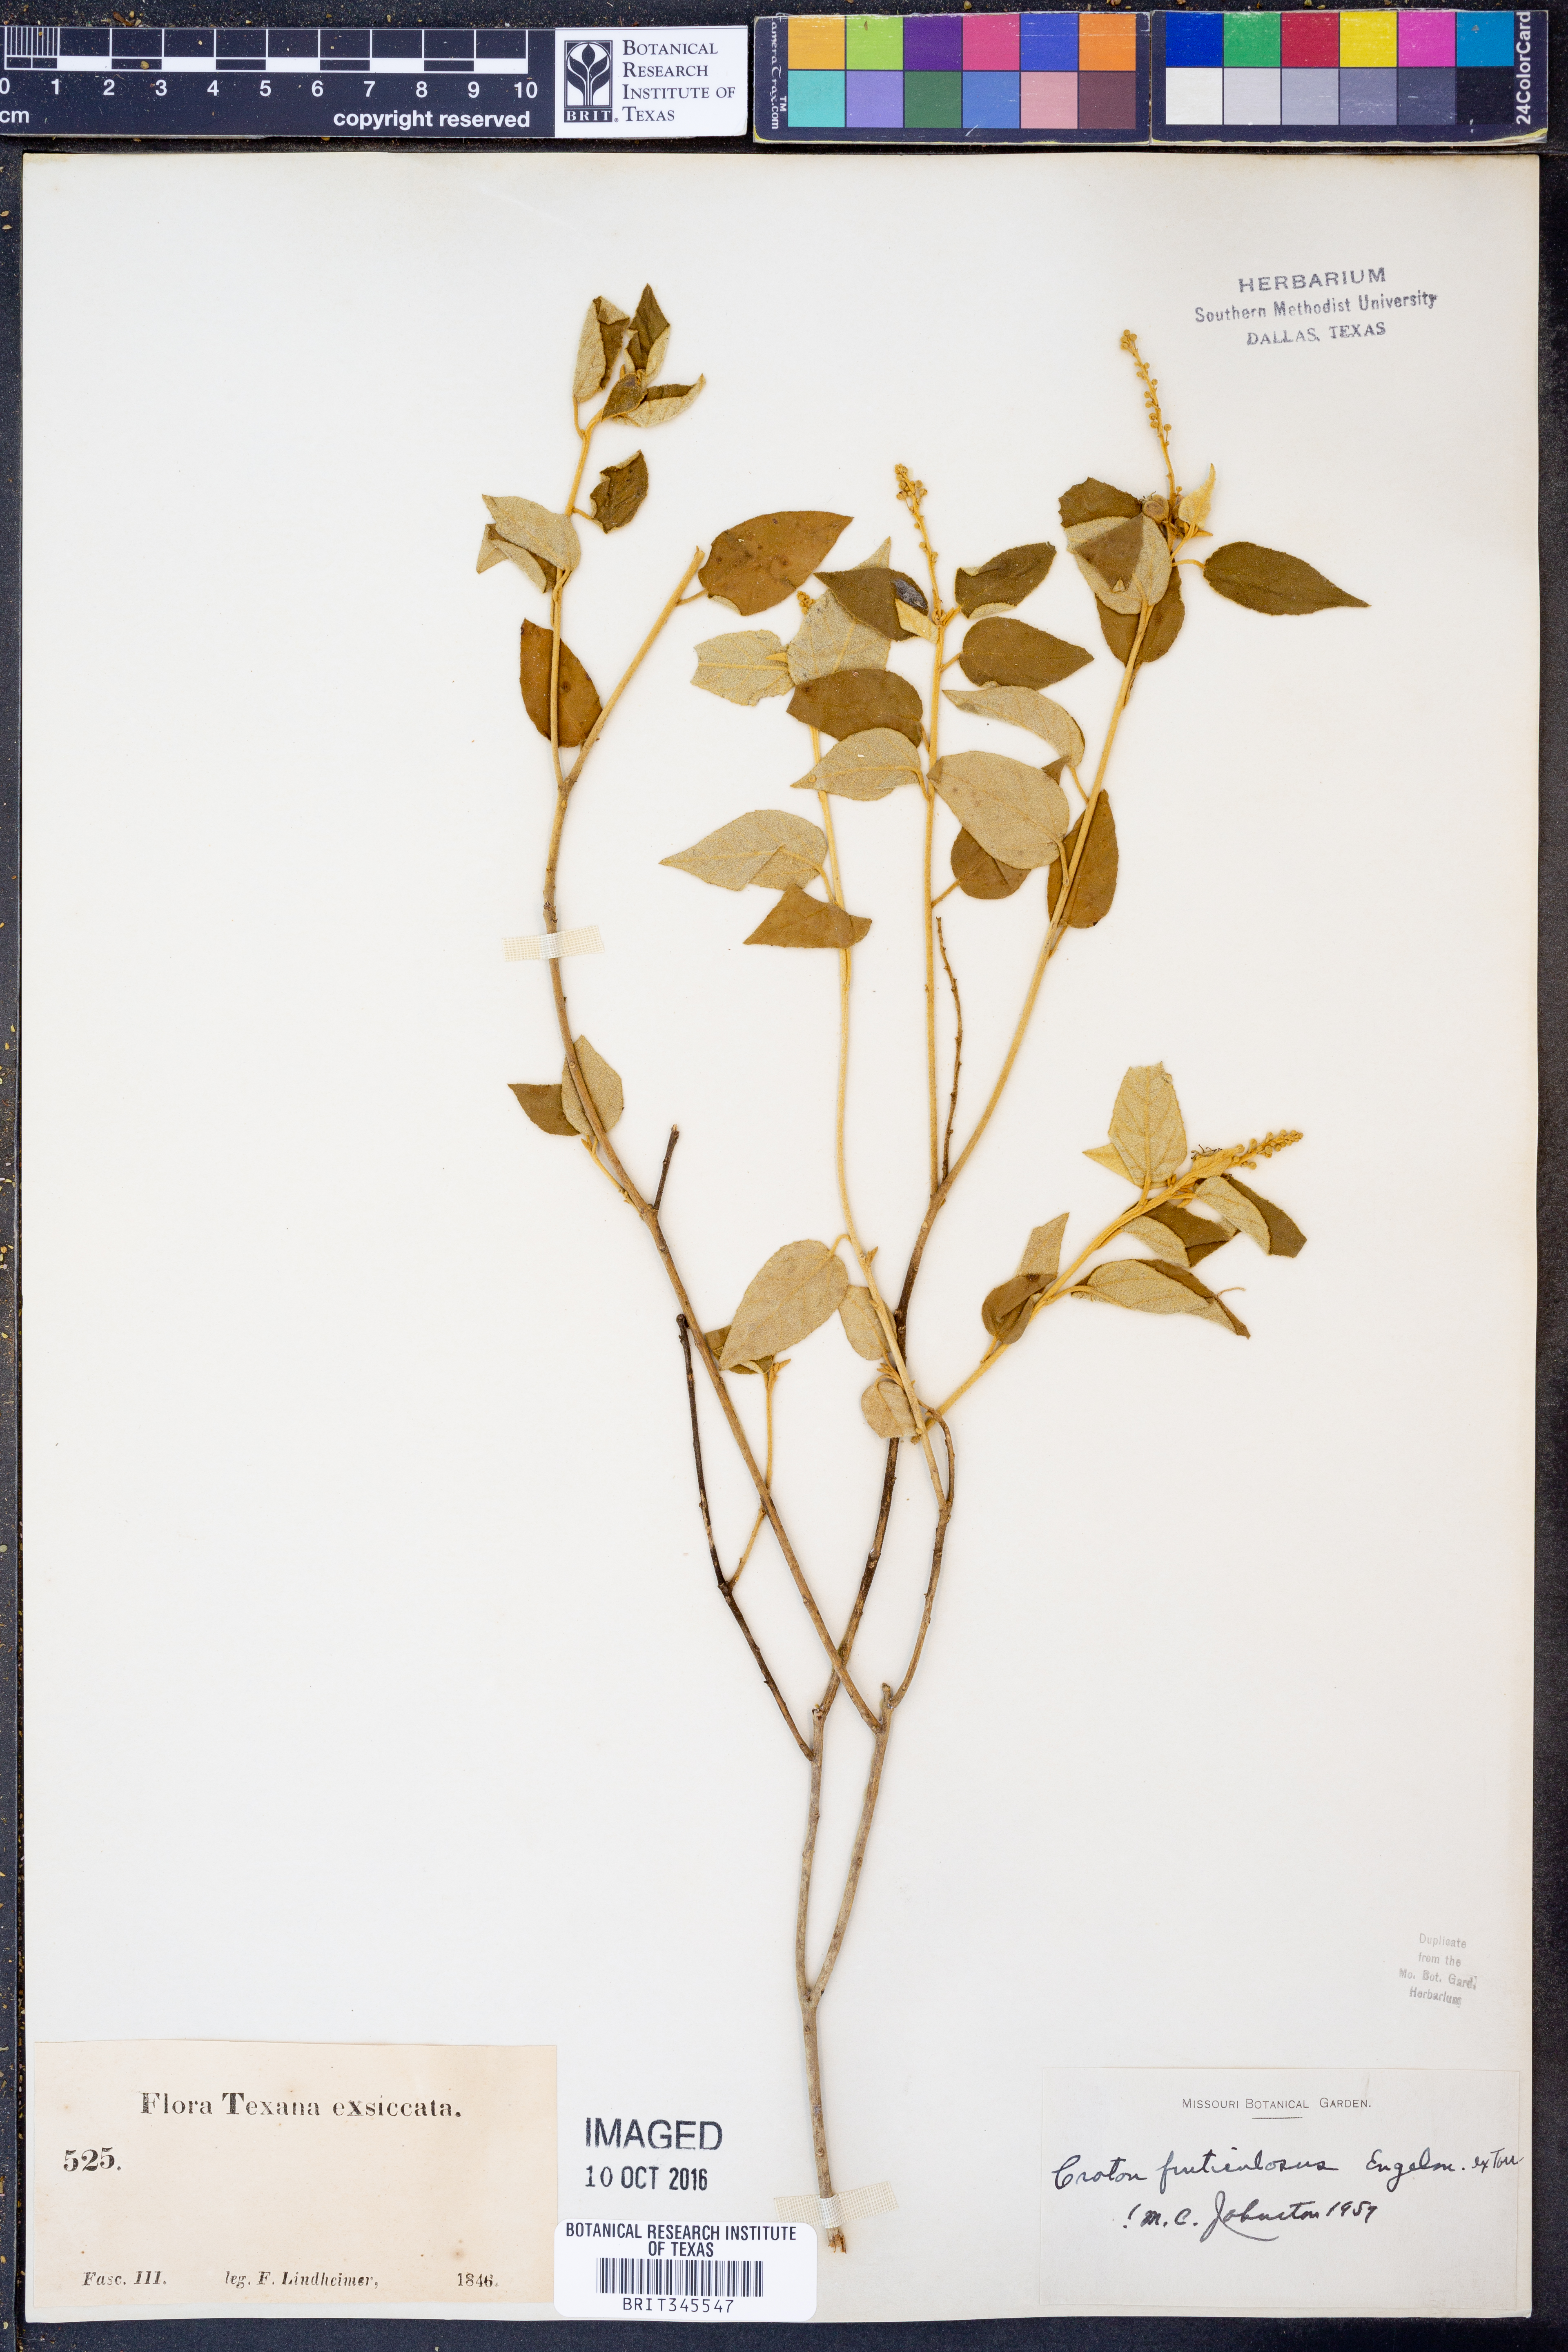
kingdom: Plantae
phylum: Tracheophyta
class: Magnoliopsida
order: Malpighiales
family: Euphorbiaceae
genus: Croton
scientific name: Croton fruticulosus
